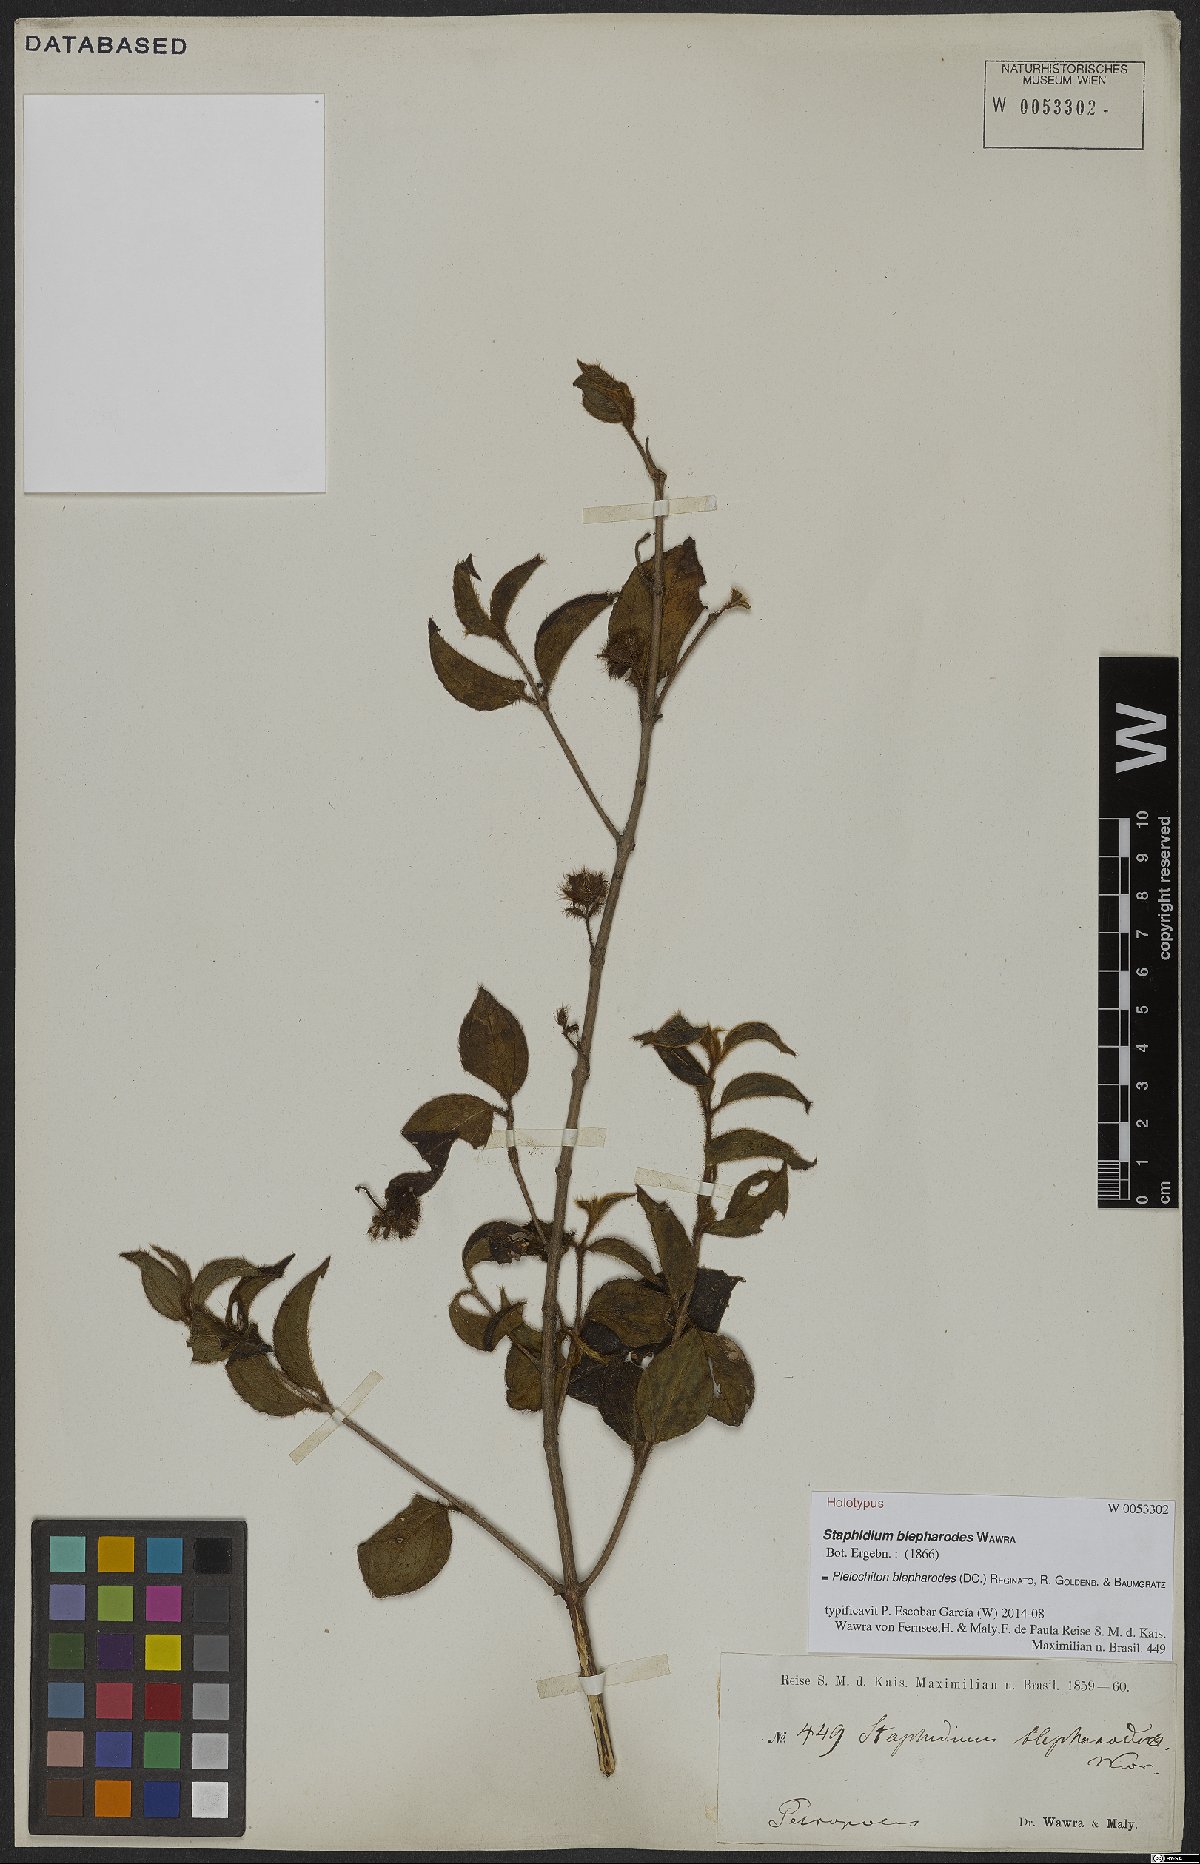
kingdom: Plantae
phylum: Tracheophyta
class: Magnoliopsida
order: Myrtales
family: Melastomataceae
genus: Miconia
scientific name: Miconia blepharodes
